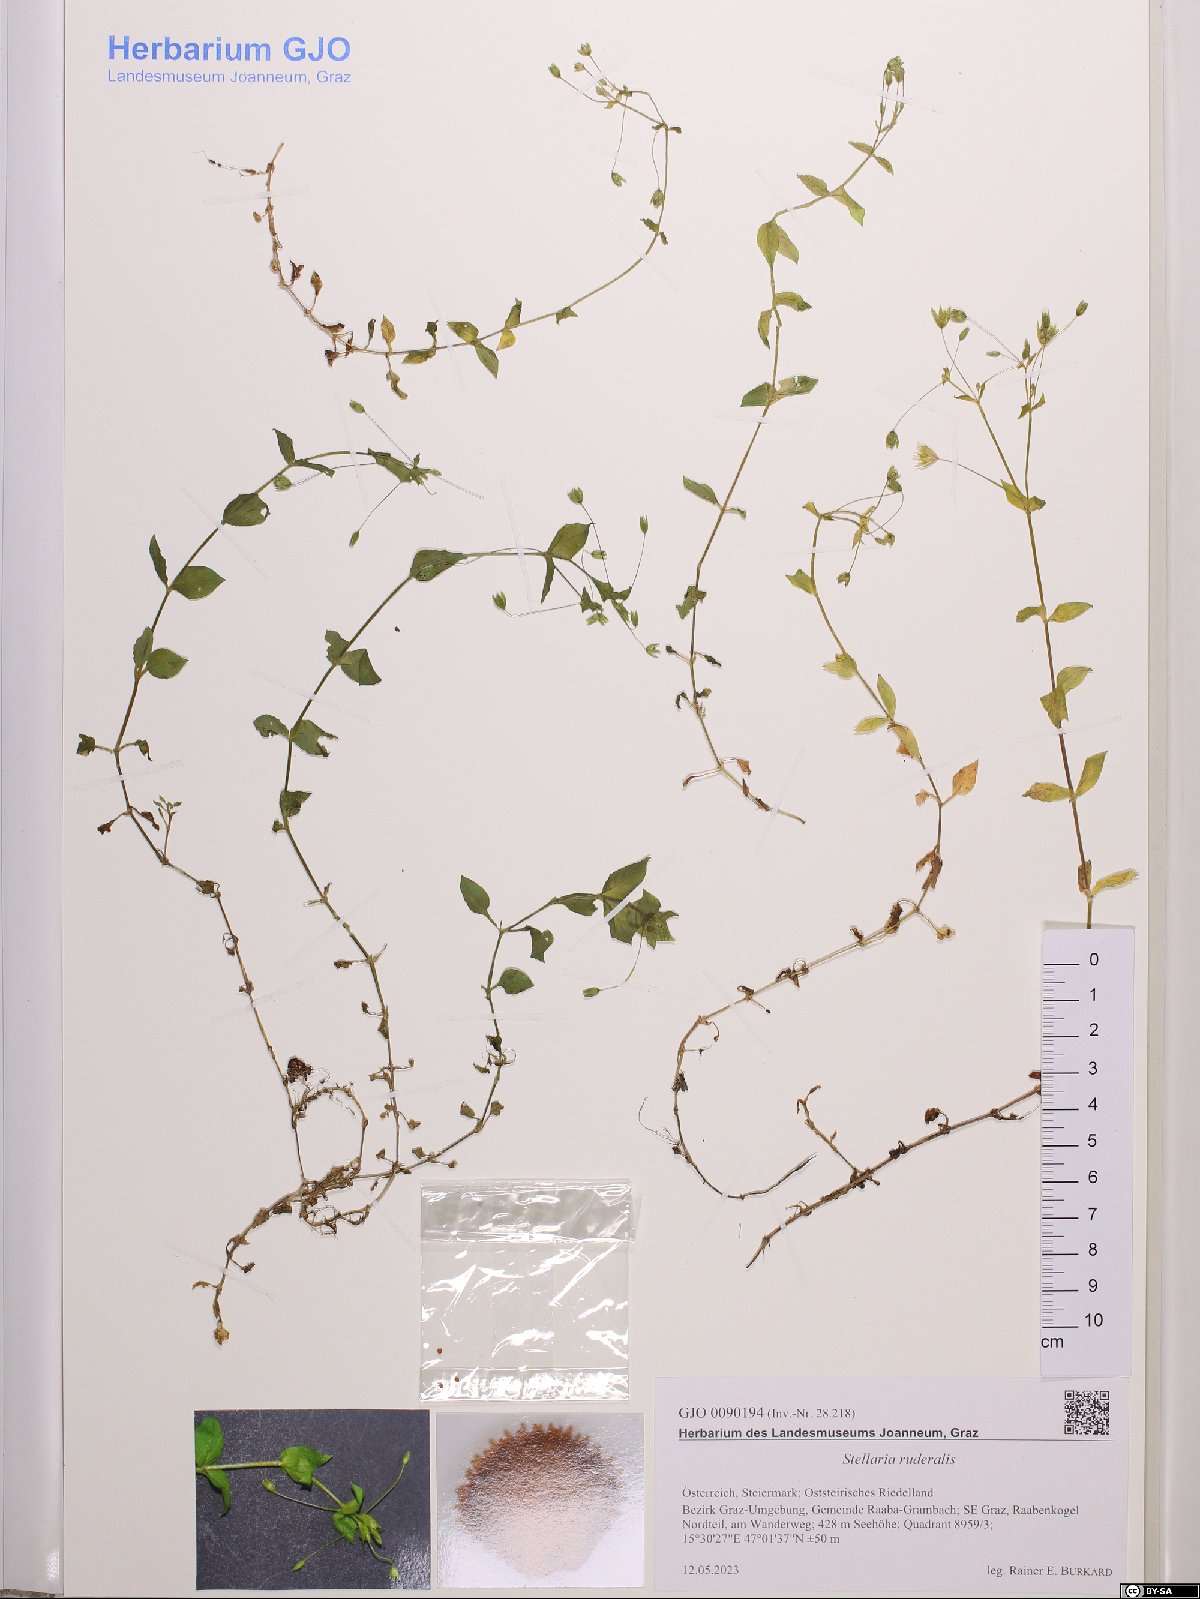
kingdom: Plantae
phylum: Tracheophyta
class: Magnoliopsida
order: Caryophyllales
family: Caryophyllaceae
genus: Stellaria
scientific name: Stellaria ruderalis
